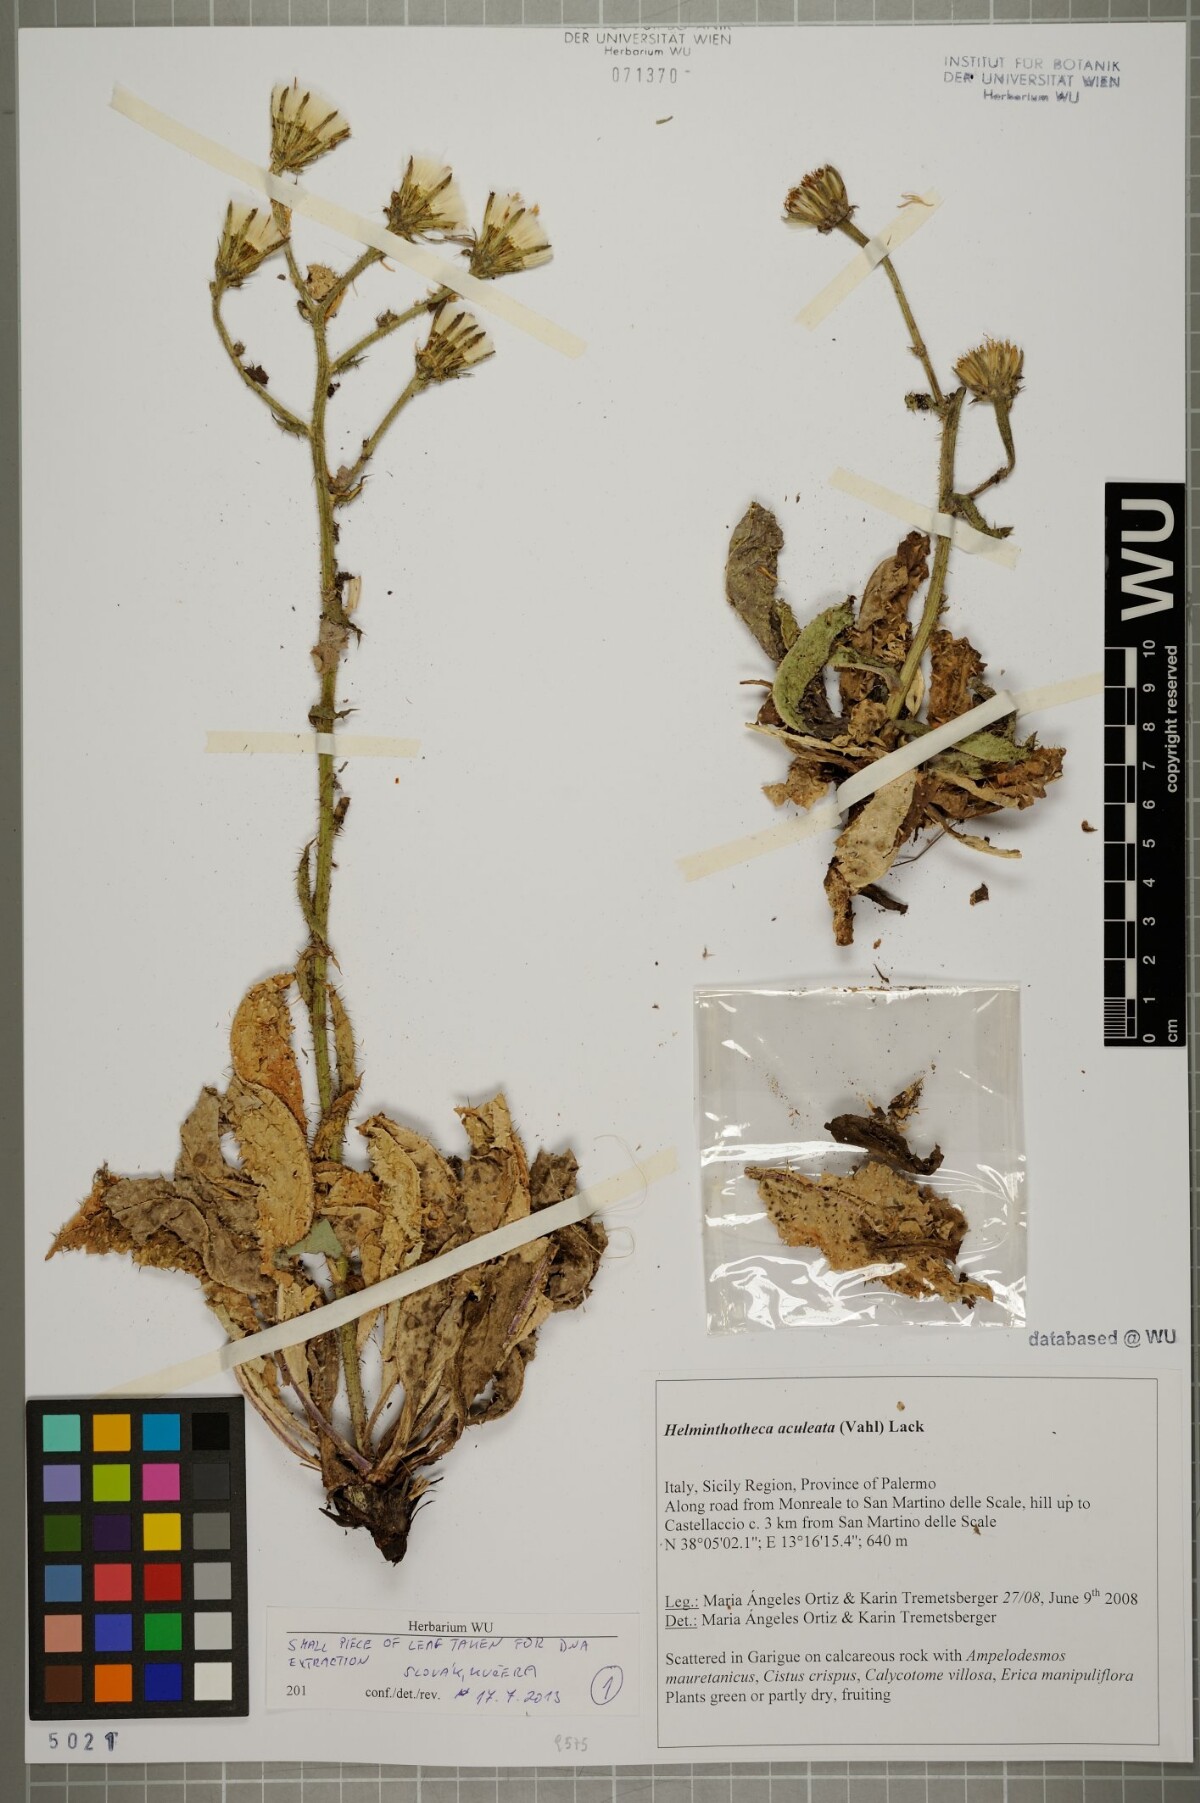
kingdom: Plantae
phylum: Tracheophyta
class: Magnoliopsida
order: Asterales
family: Asteraceae
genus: Helminthotheca
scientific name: Helminthotheca aculeata
